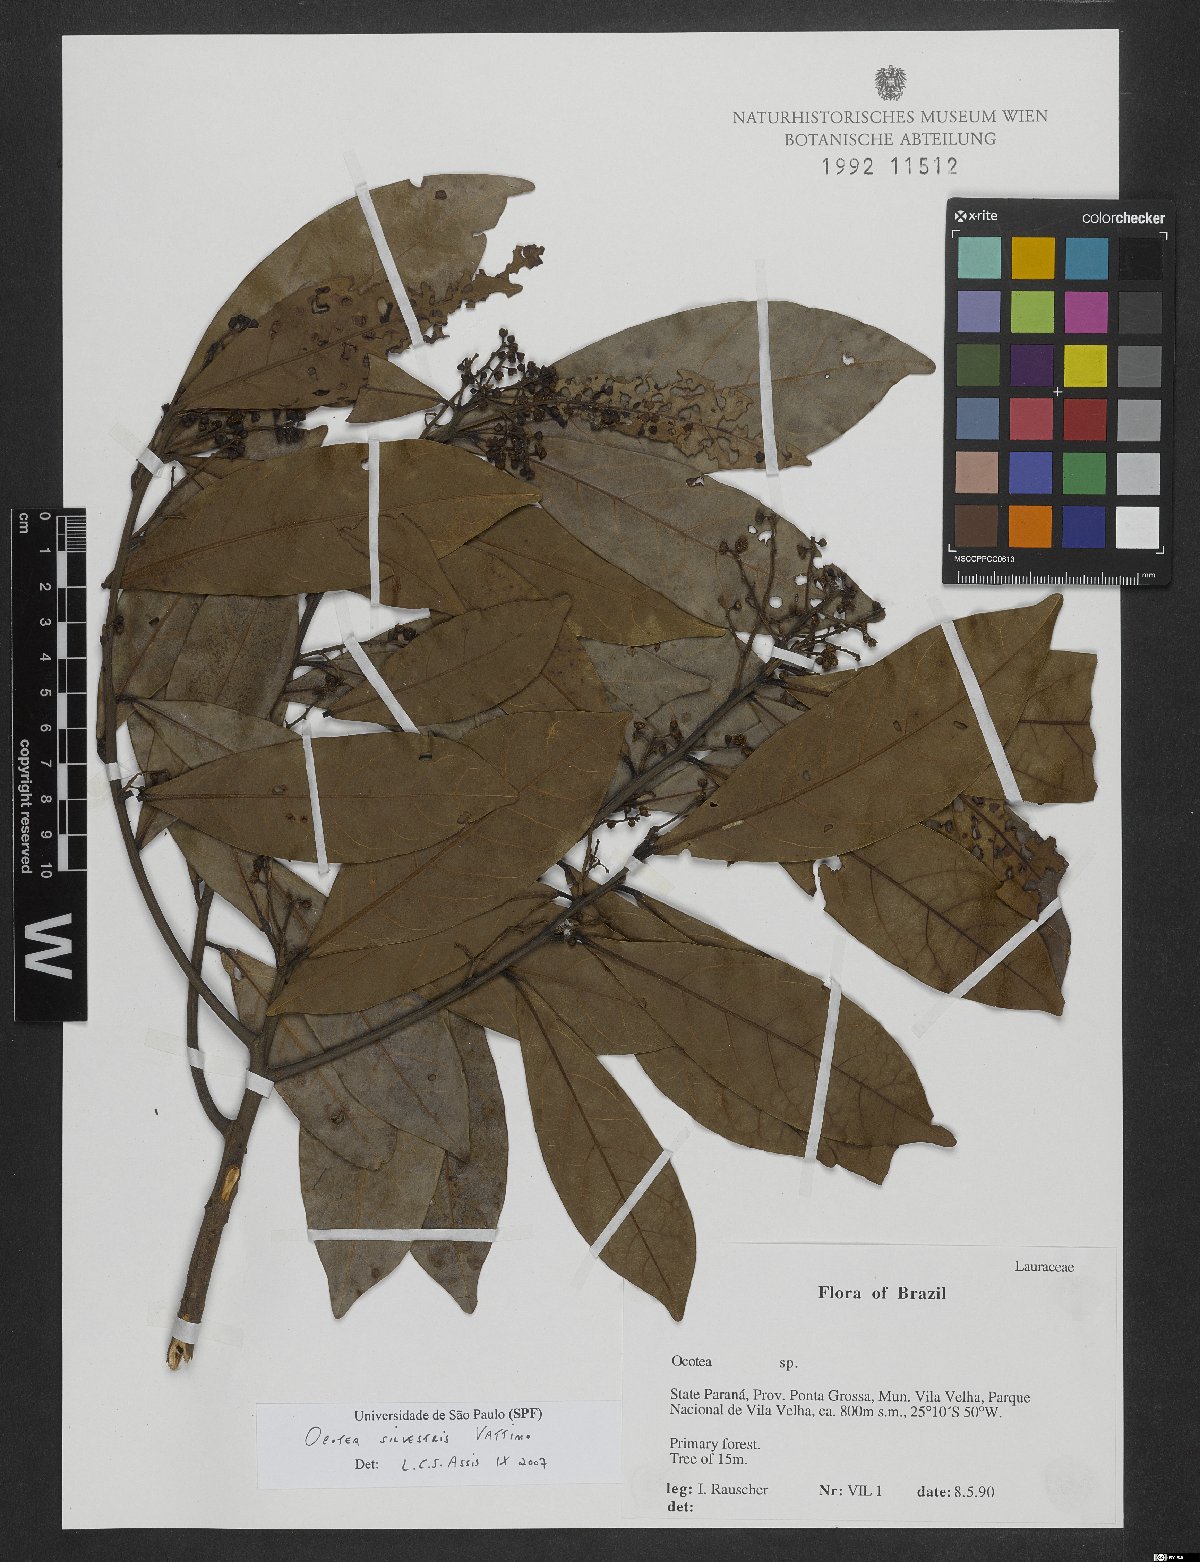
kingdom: Plantae
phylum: Tracheophyta
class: Magnoliopsida
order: Laurales
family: Lauraceae
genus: Ocotea
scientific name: Ocotea silvestris
